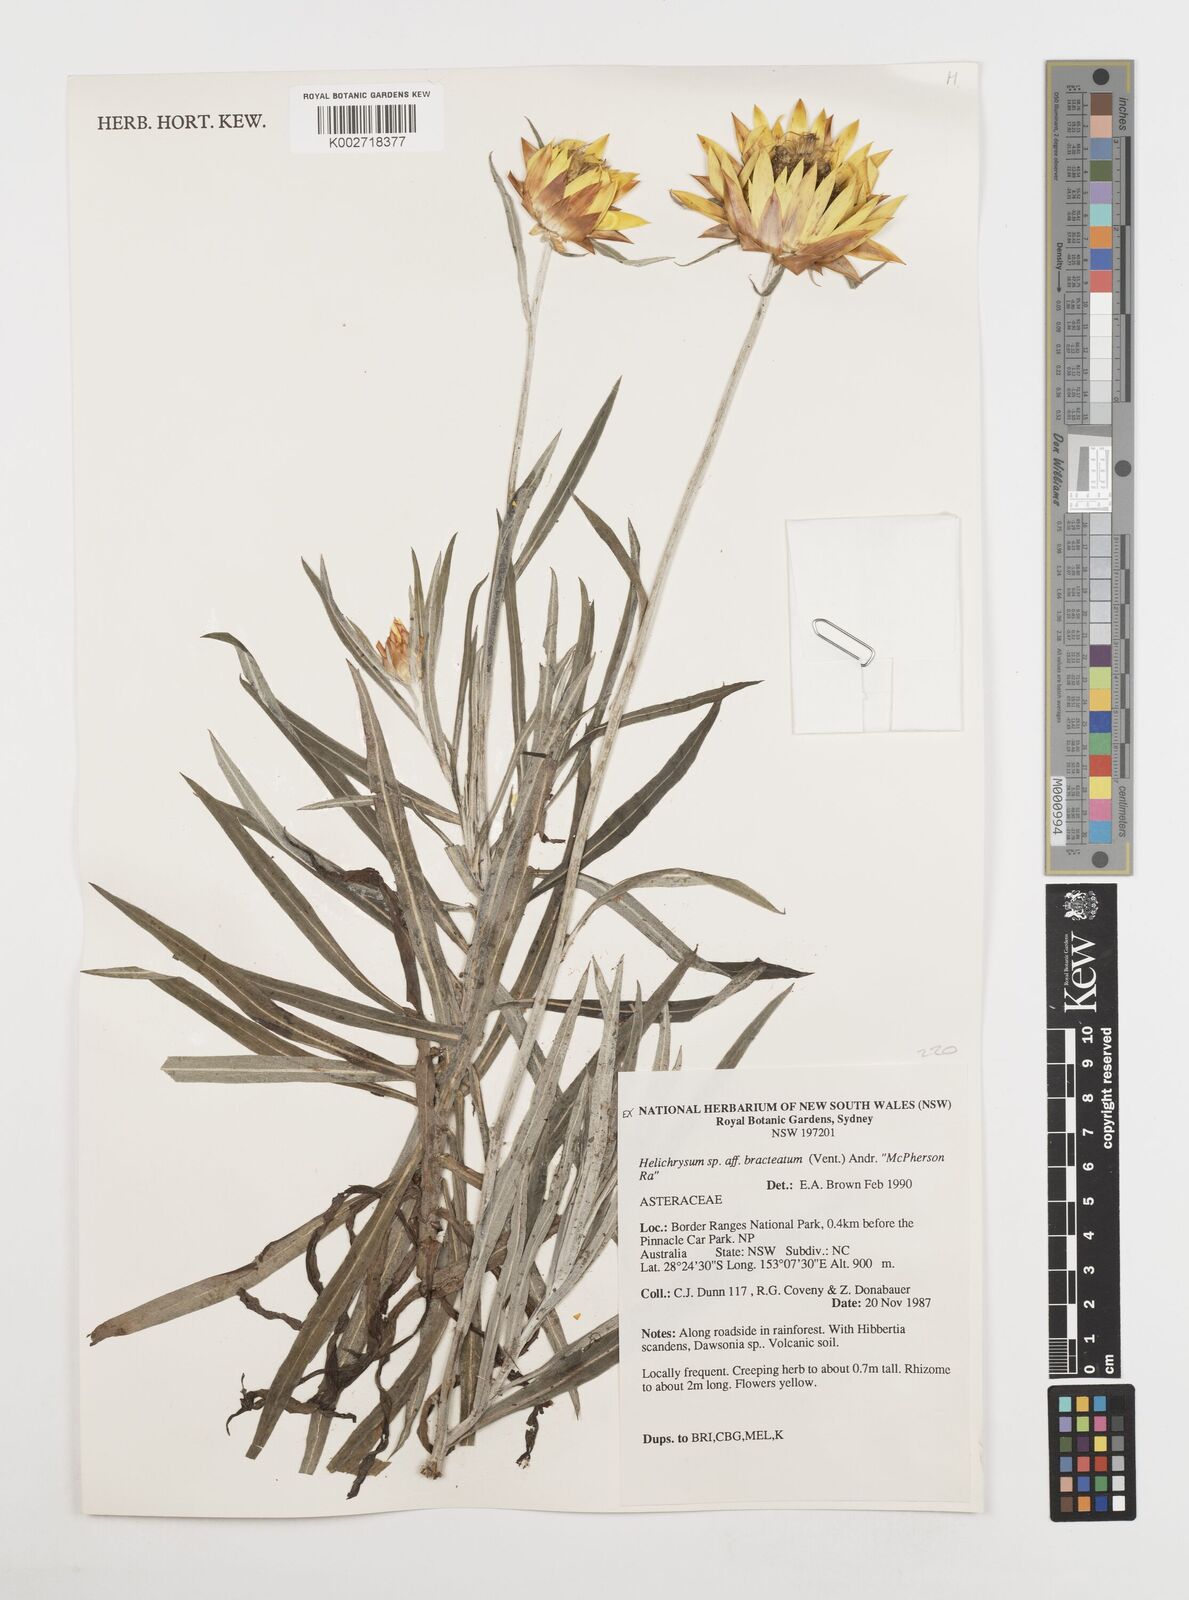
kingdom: Plantae
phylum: Tracheophyta
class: Magnoliopsida
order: Asterales
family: Asteraceae
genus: Xerochrysum
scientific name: Xerochrysum bracteatum
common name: Bracted strawflower
